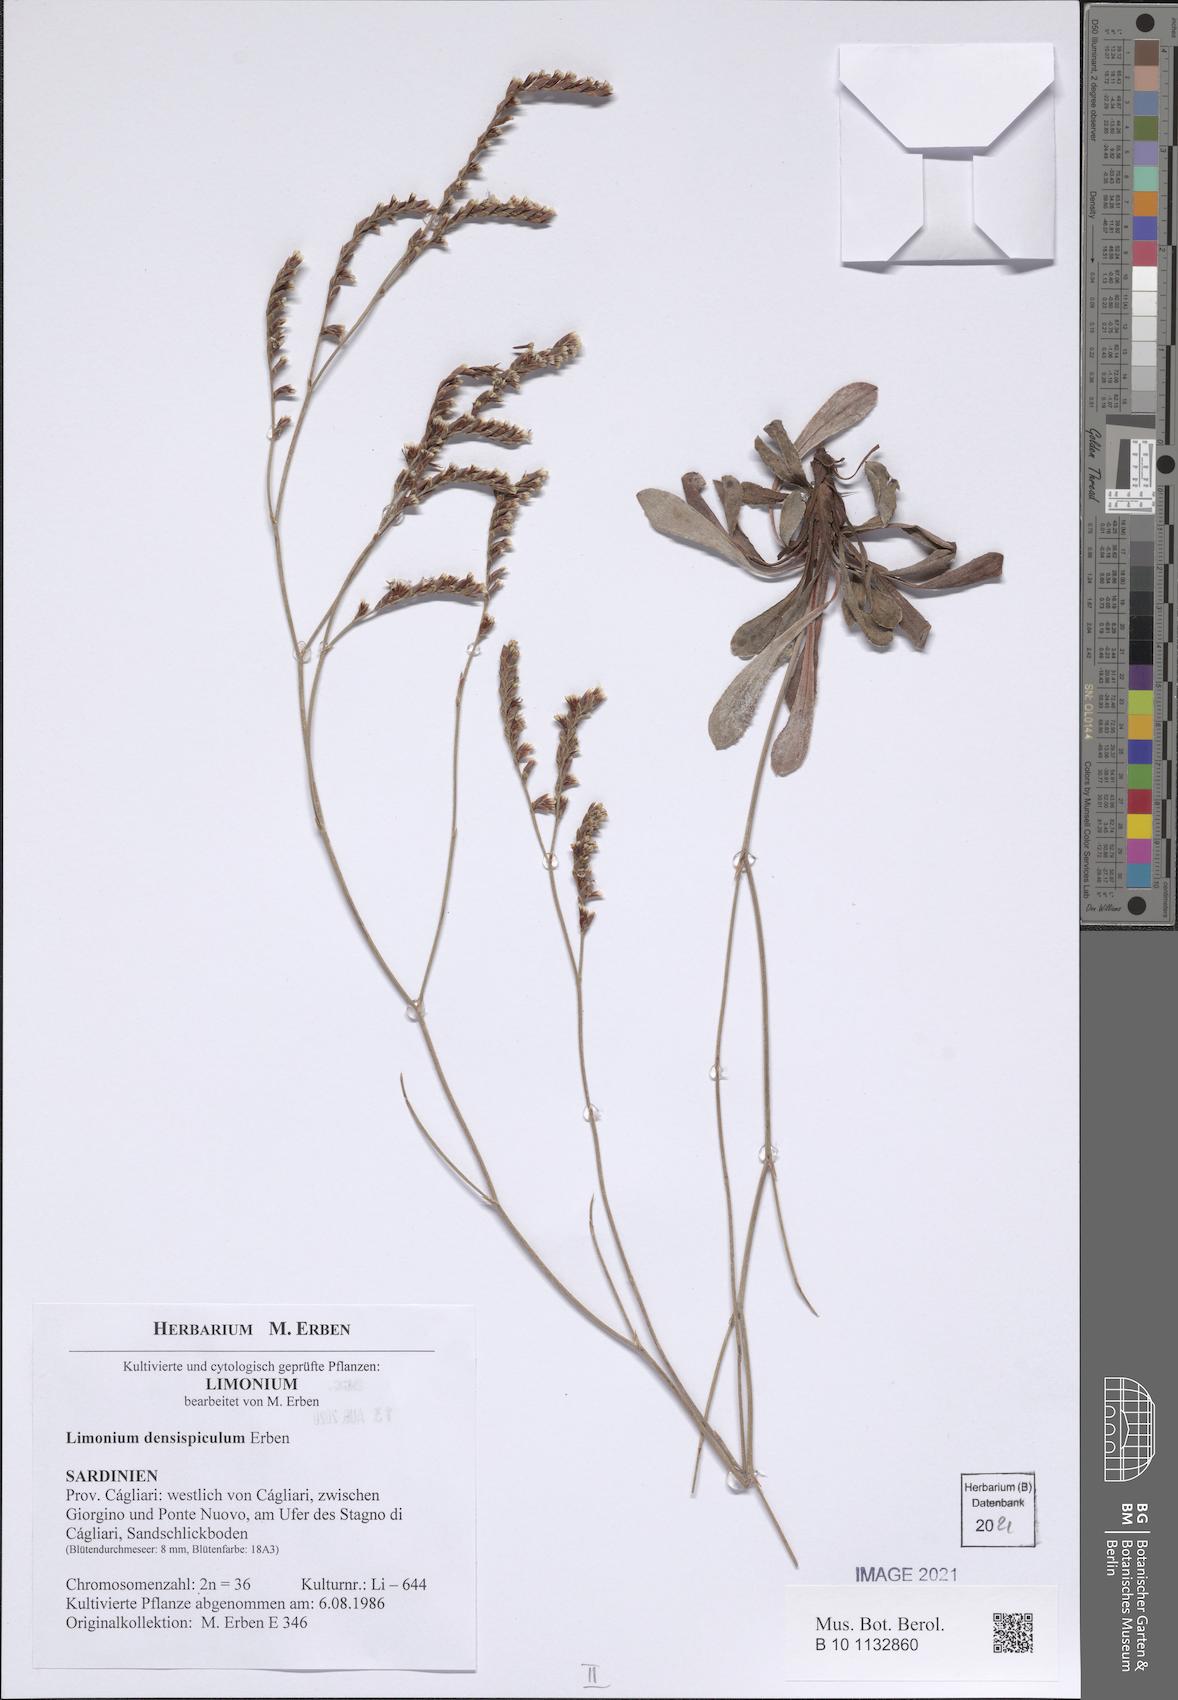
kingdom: Plantae
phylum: Tracheophyta
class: Magnoliopsida
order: Caryophyllales
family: Plumbaginaceae
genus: Limonium
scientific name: Limonium
